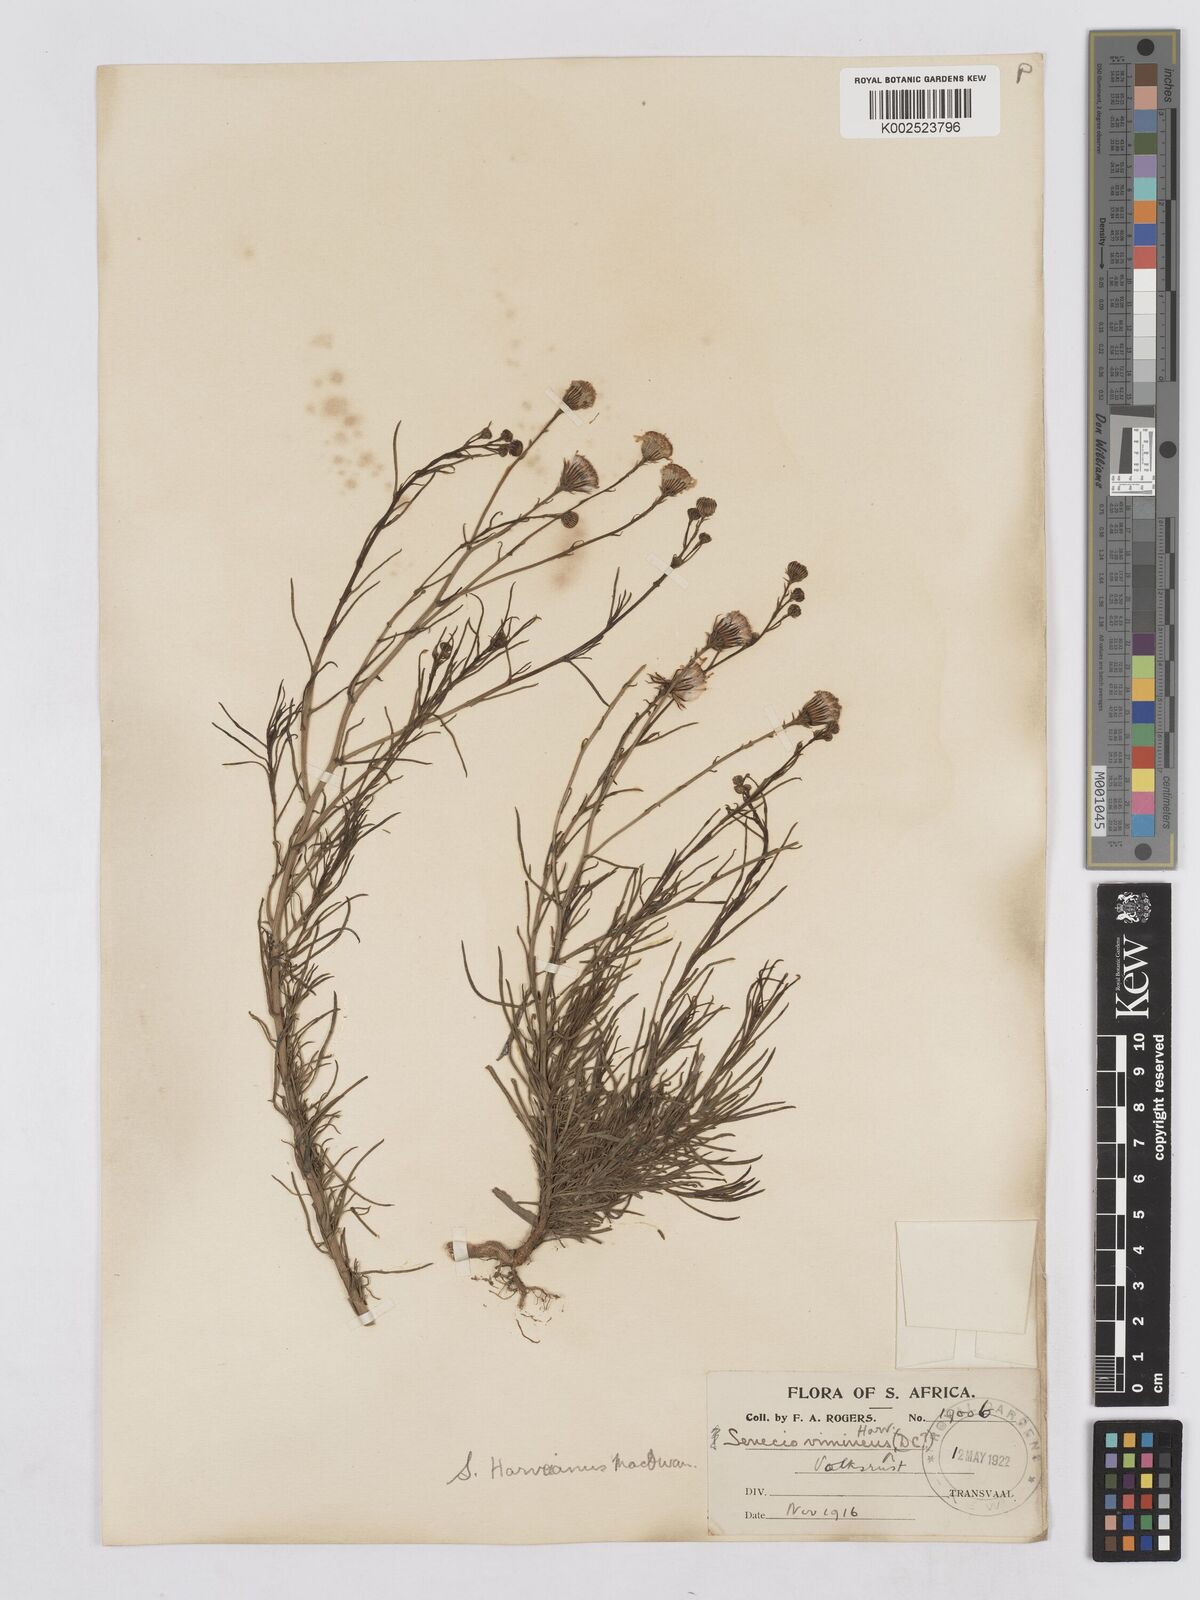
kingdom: Plantae
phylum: Tracheophyta
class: Magnoliopsida
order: Asterales
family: Asteraceae
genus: Senecio
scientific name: Senecio harveyanus
